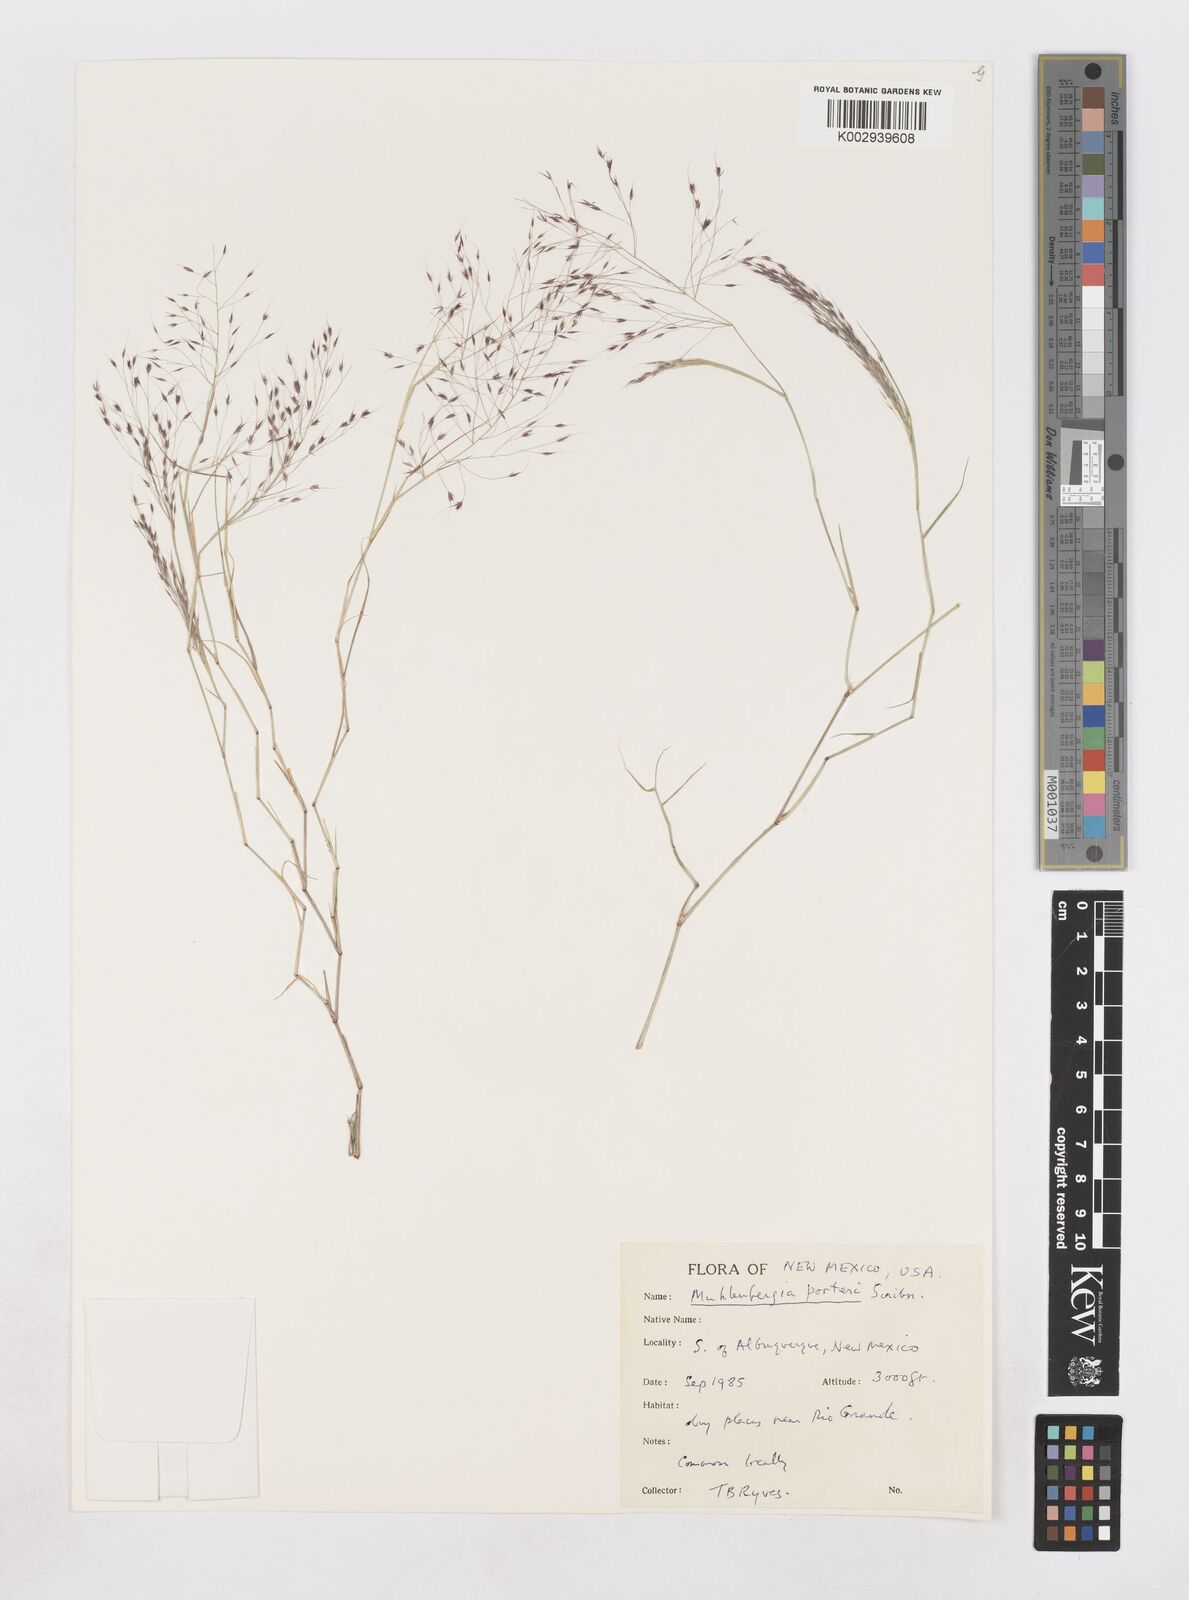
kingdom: Plantae
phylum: Tracheophyta
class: Liliopsida
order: Poales
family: Poaceae
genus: Muhlenbergia
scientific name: Muhlenbergia porteri
